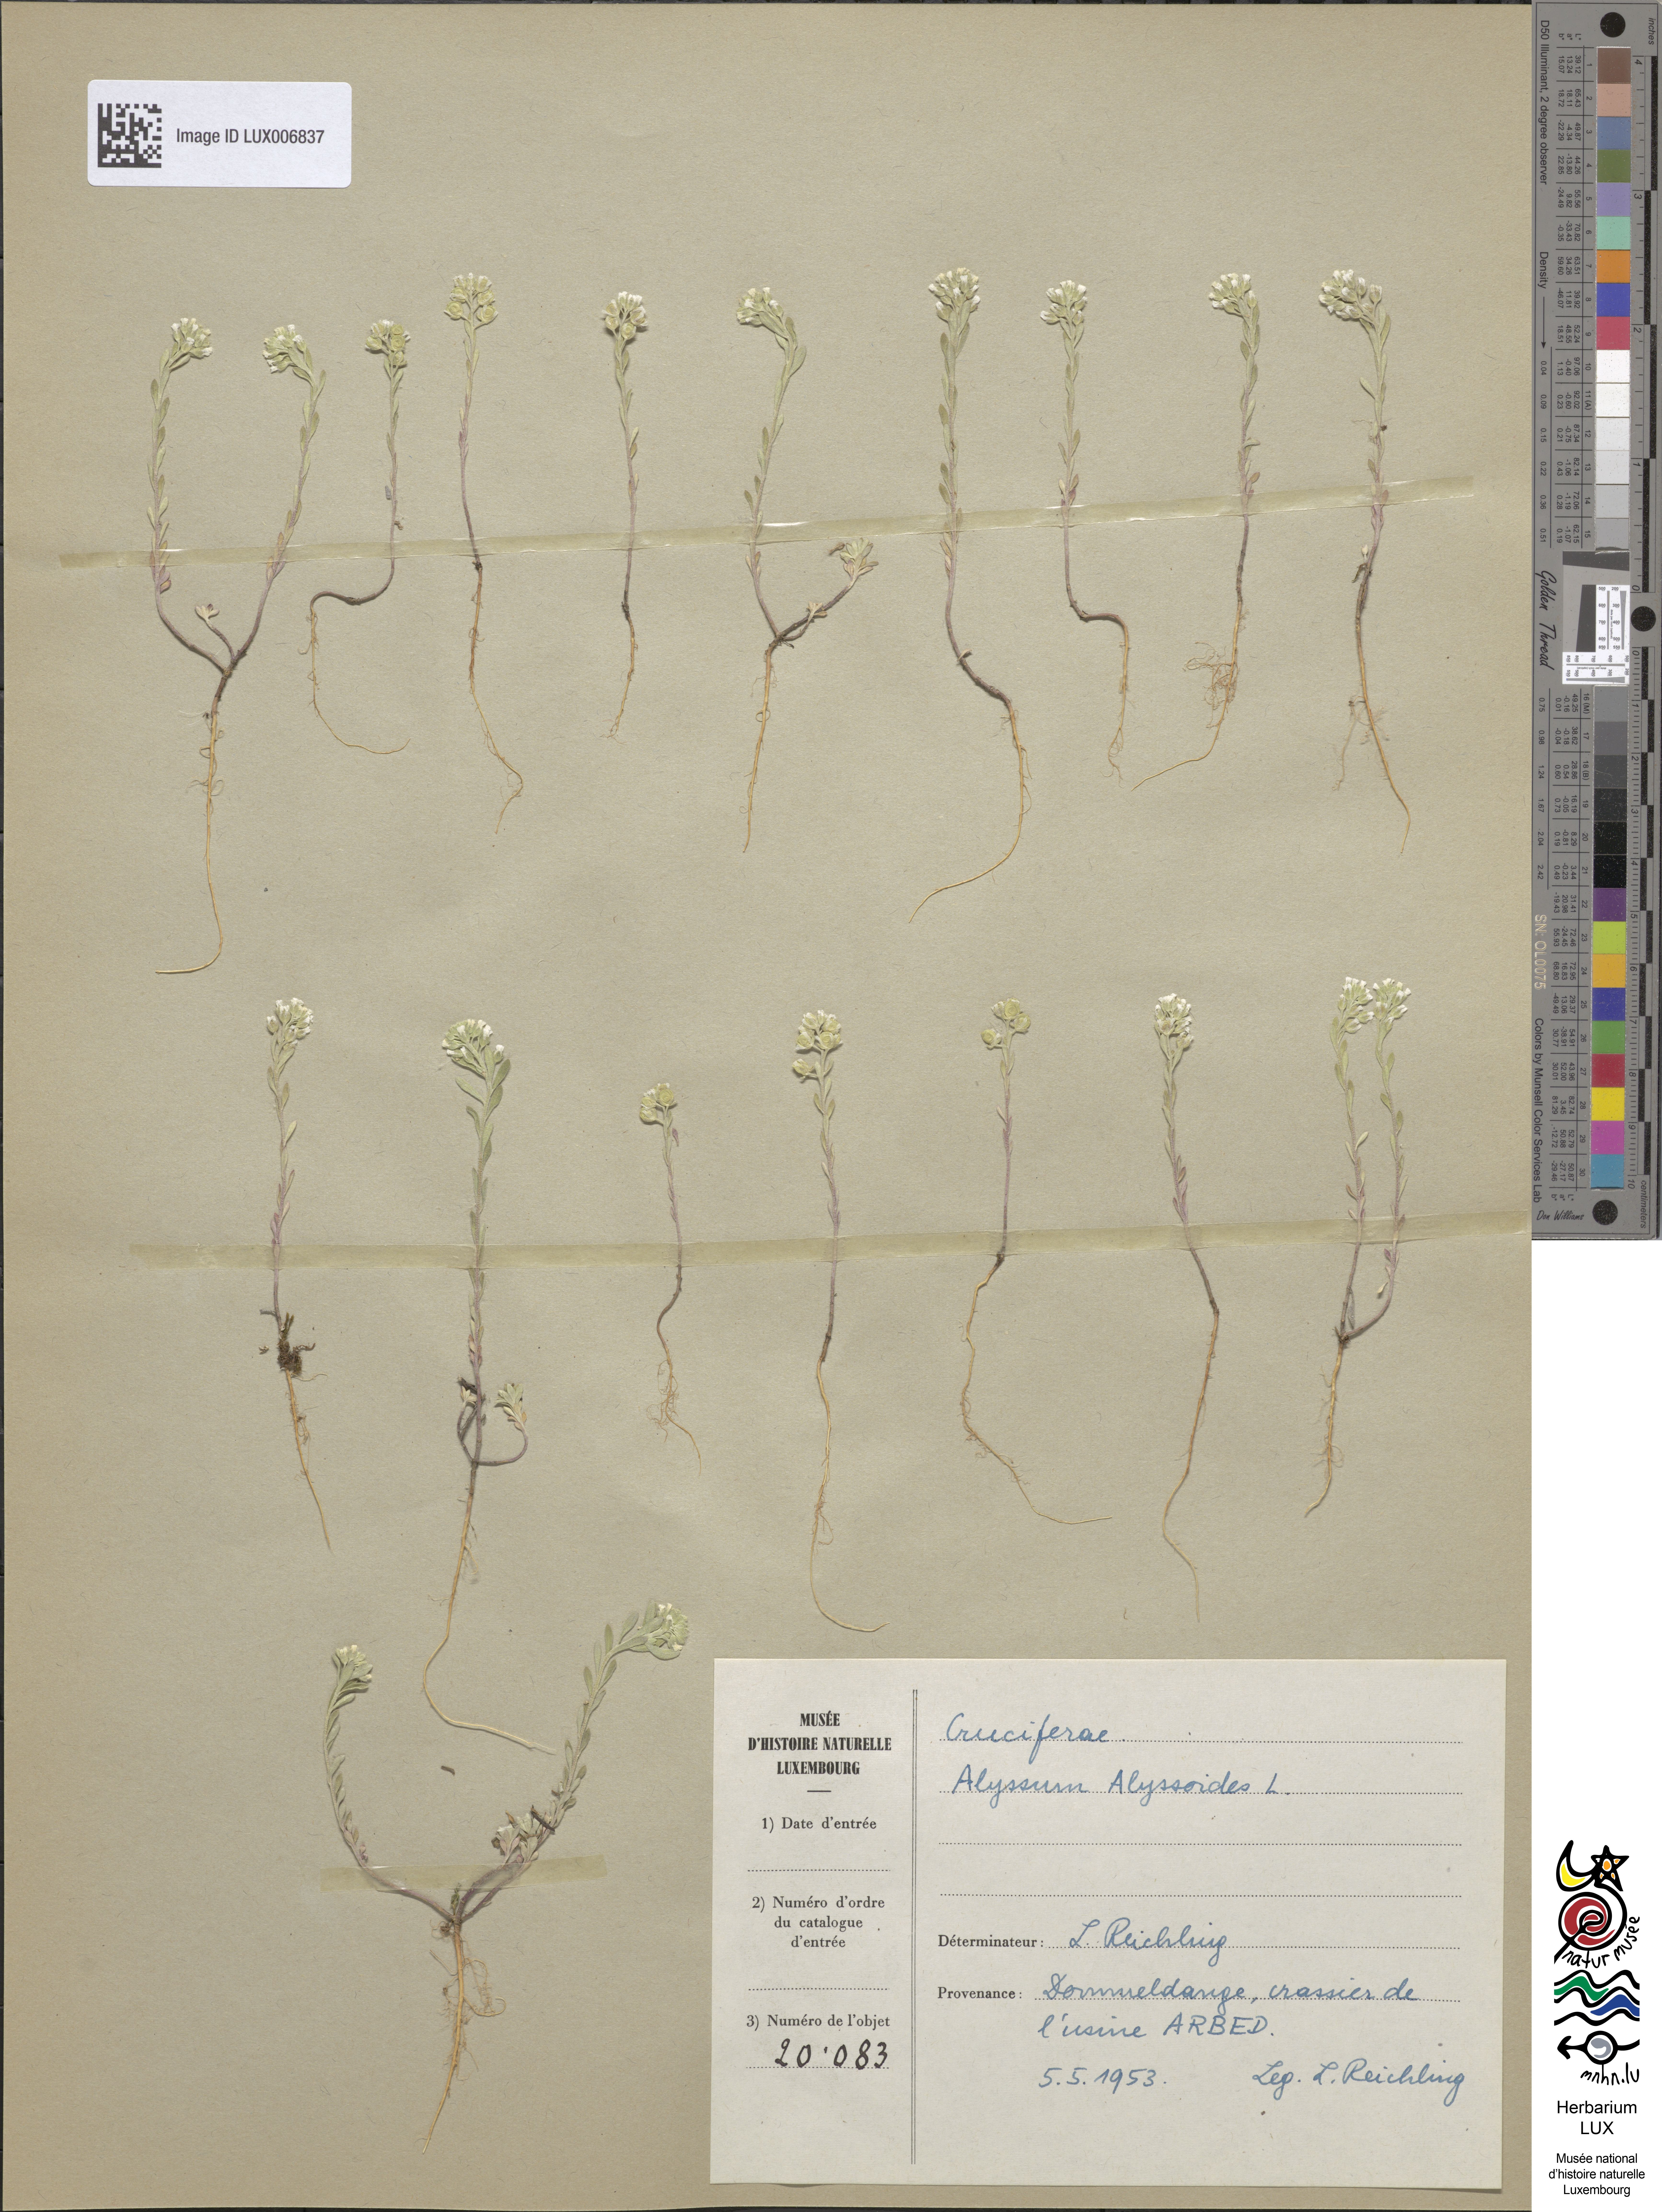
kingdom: Plantae
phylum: Tracheophyta
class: Magnoliopsida
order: Brassicales
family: Brassicaceae
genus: Alyssum
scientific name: Alyssum alyssoides
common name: Small alison
